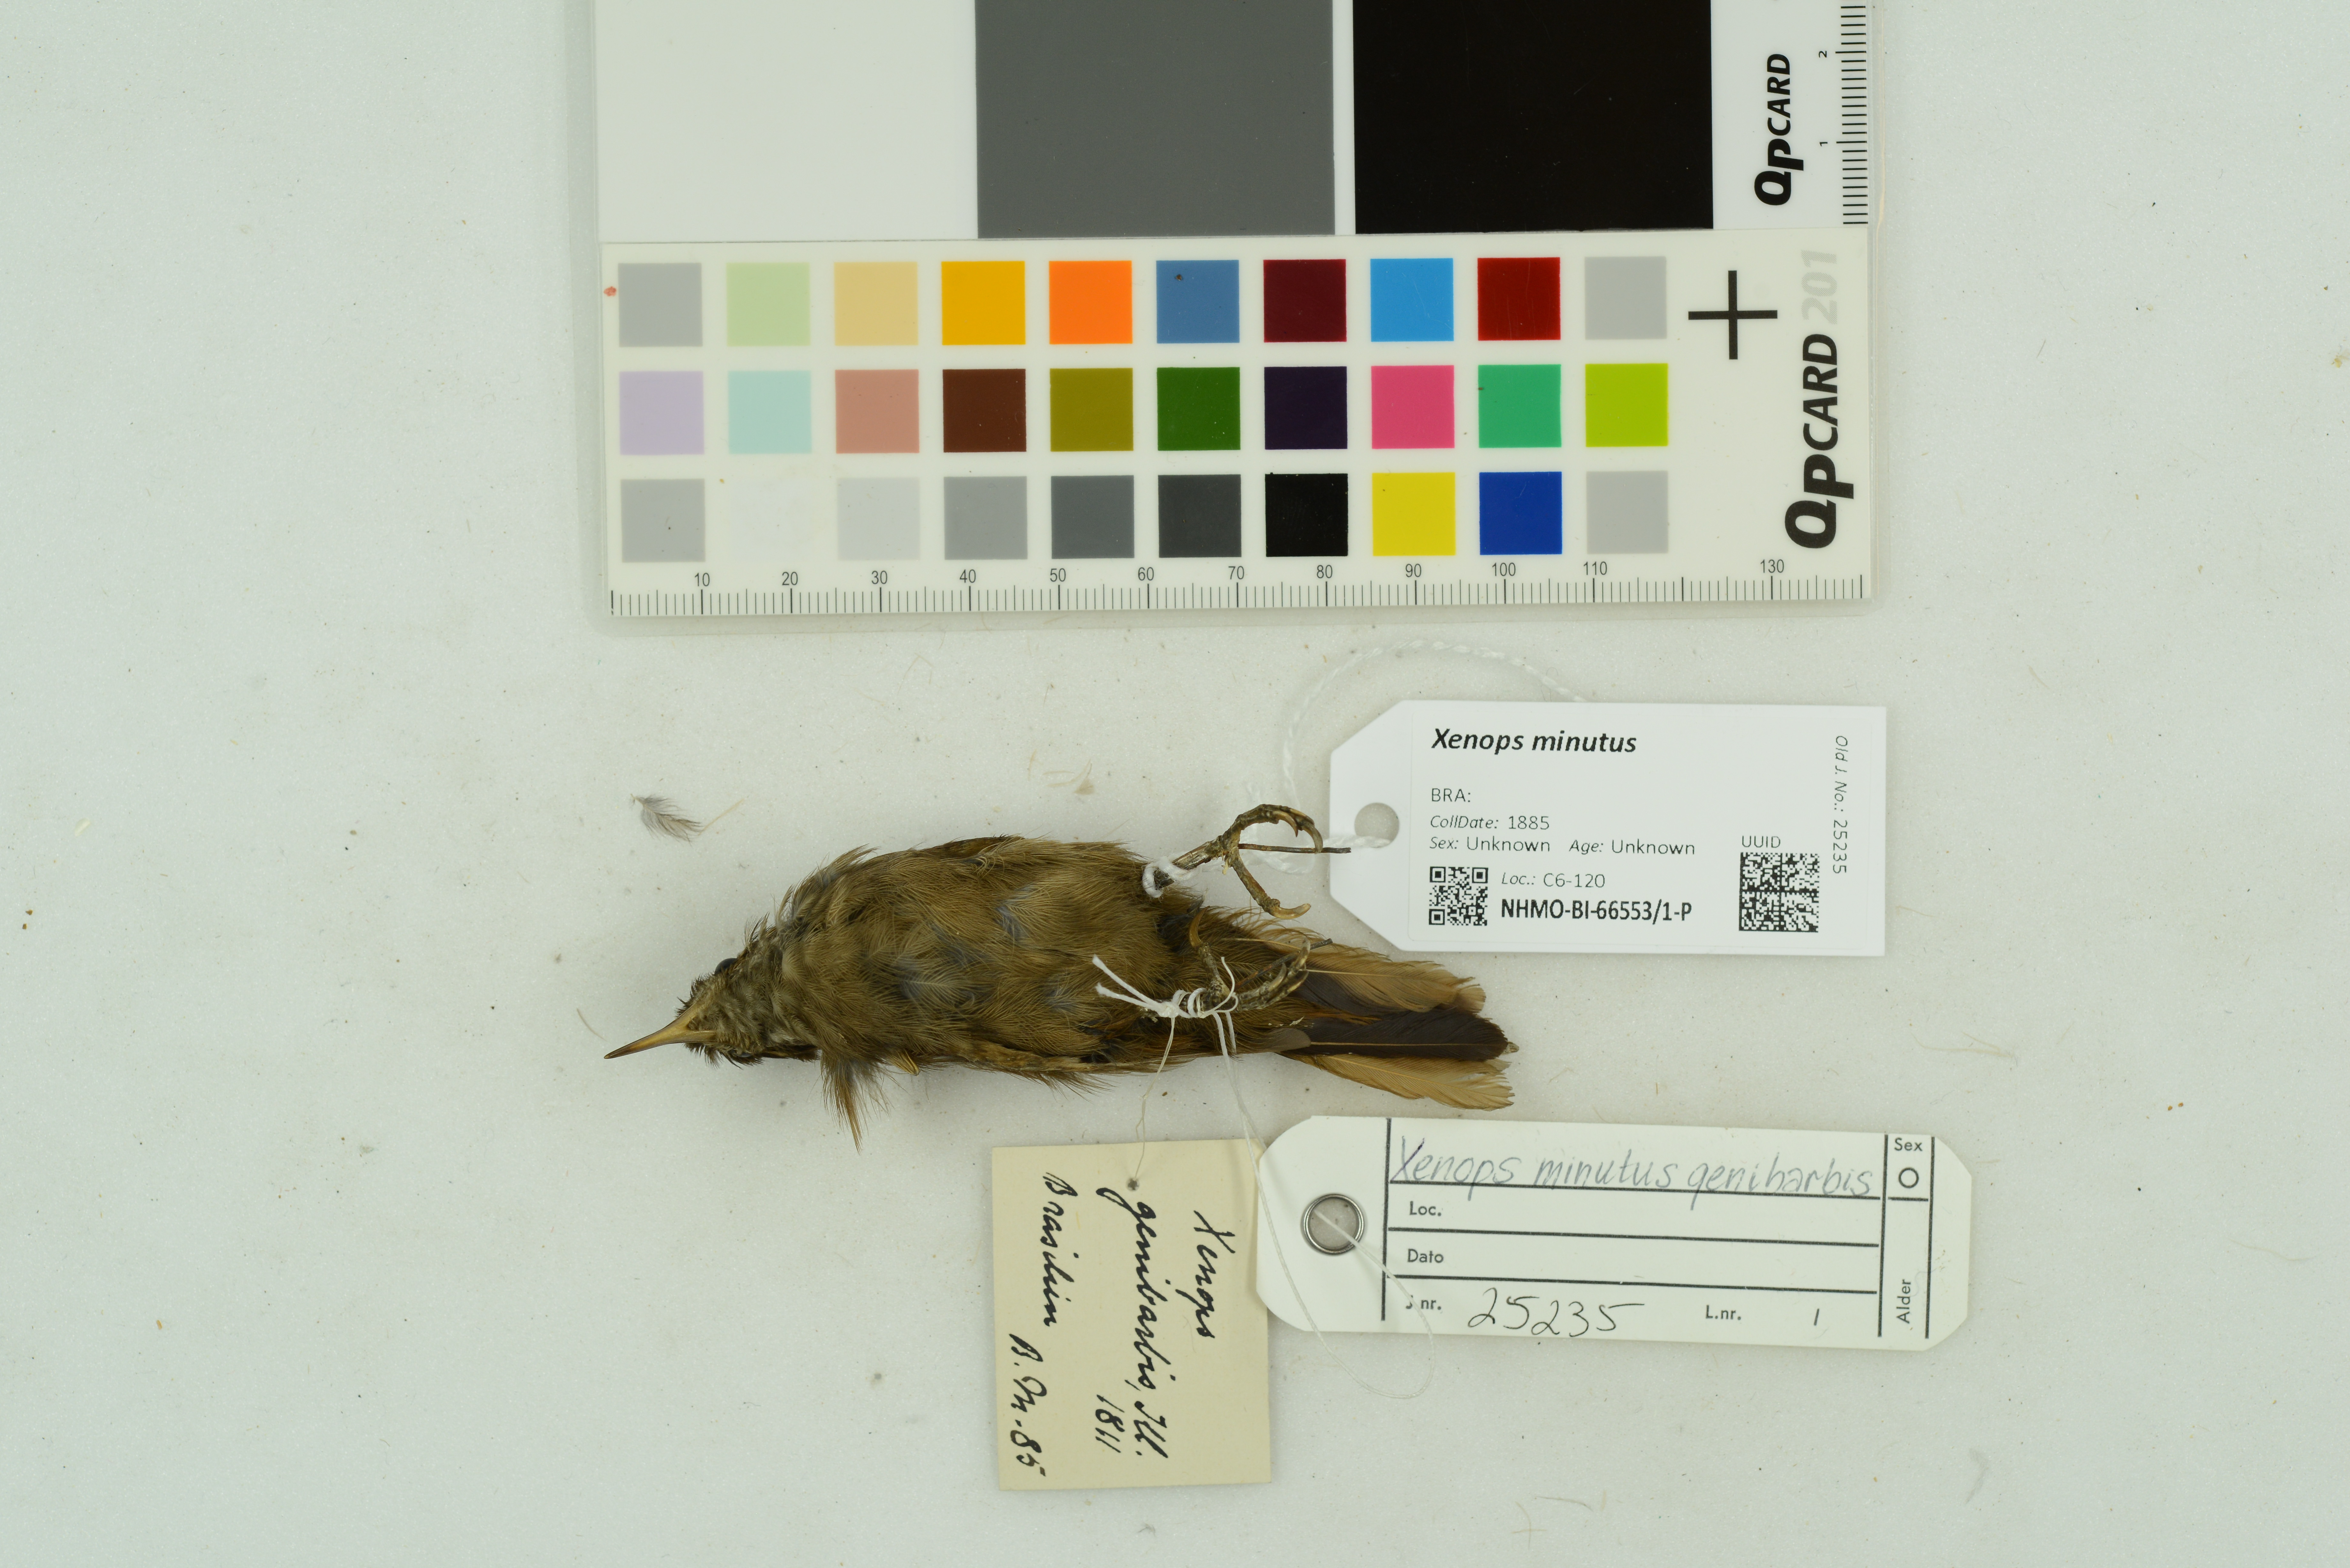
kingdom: Animalia
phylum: Chordata
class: Aves
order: Passeriformes
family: Furnariidae
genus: Xenops
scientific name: Xenops minutus
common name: Plain xenops
